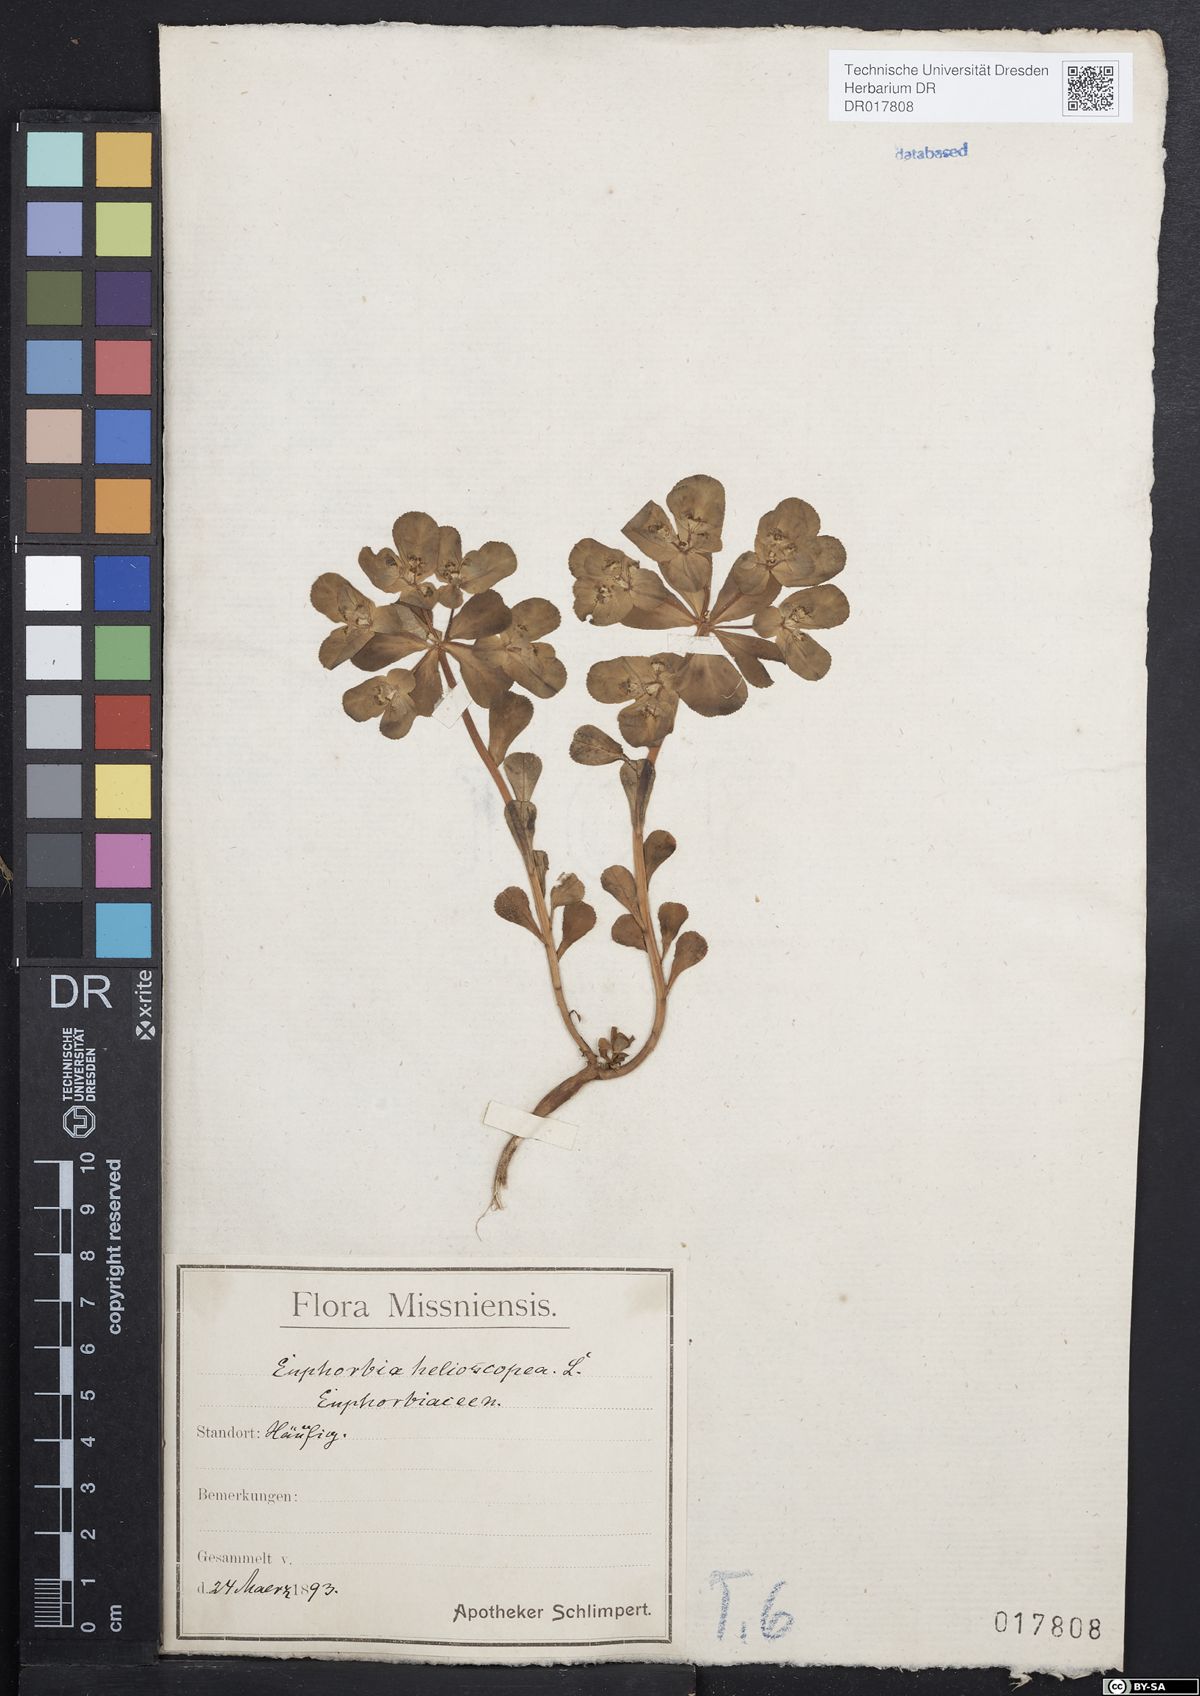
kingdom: Plantae
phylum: Tracheophyta
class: Magnoliopsida
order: Malpighiales
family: Euphorbiaceae
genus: Euphorbia
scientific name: Euphorbia helioscopia
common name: Sun spurge
